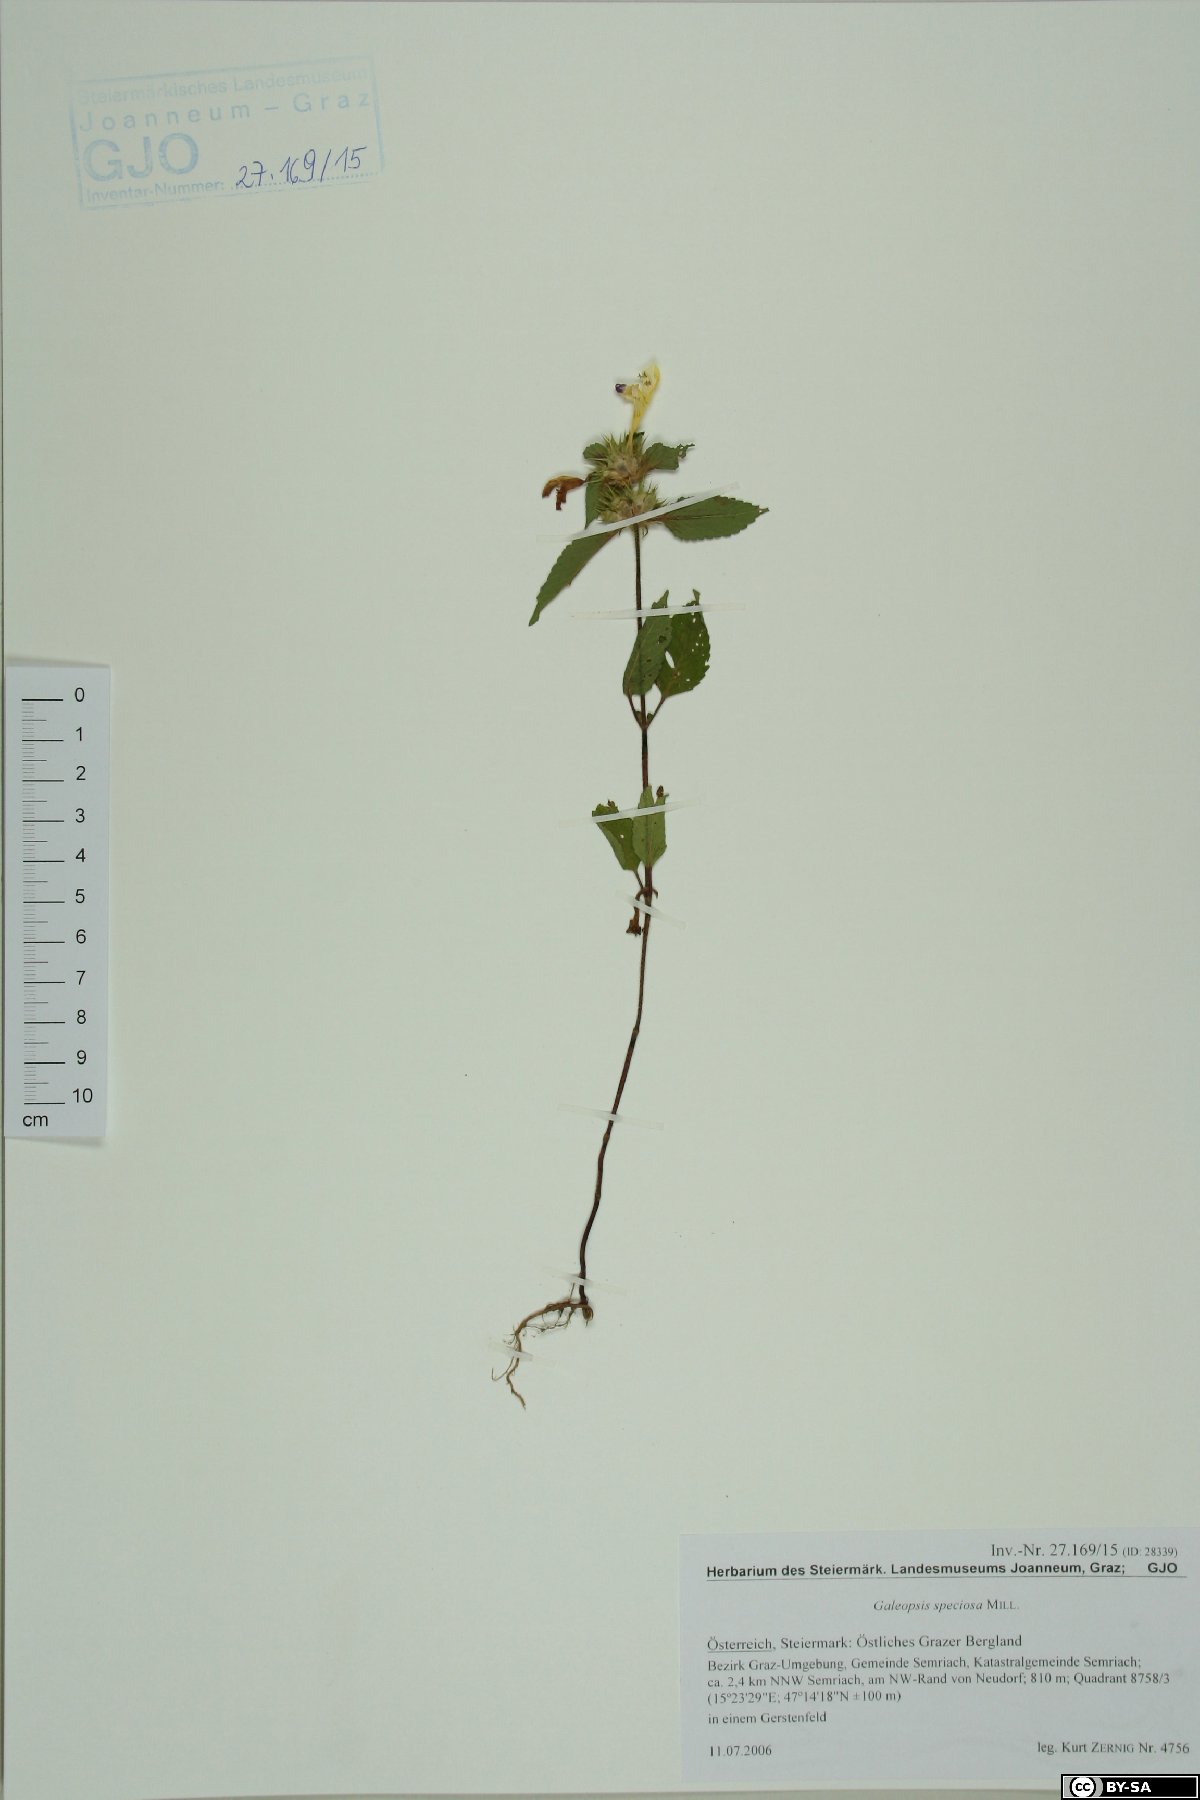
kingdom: Plantae
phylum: Tracheophyta
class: Magnoliopsida
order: Lamiales
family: Lamiaceae
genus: Galeopsis
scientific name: Galeopsis speciosa
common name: Large-flowered hemp-nettle
